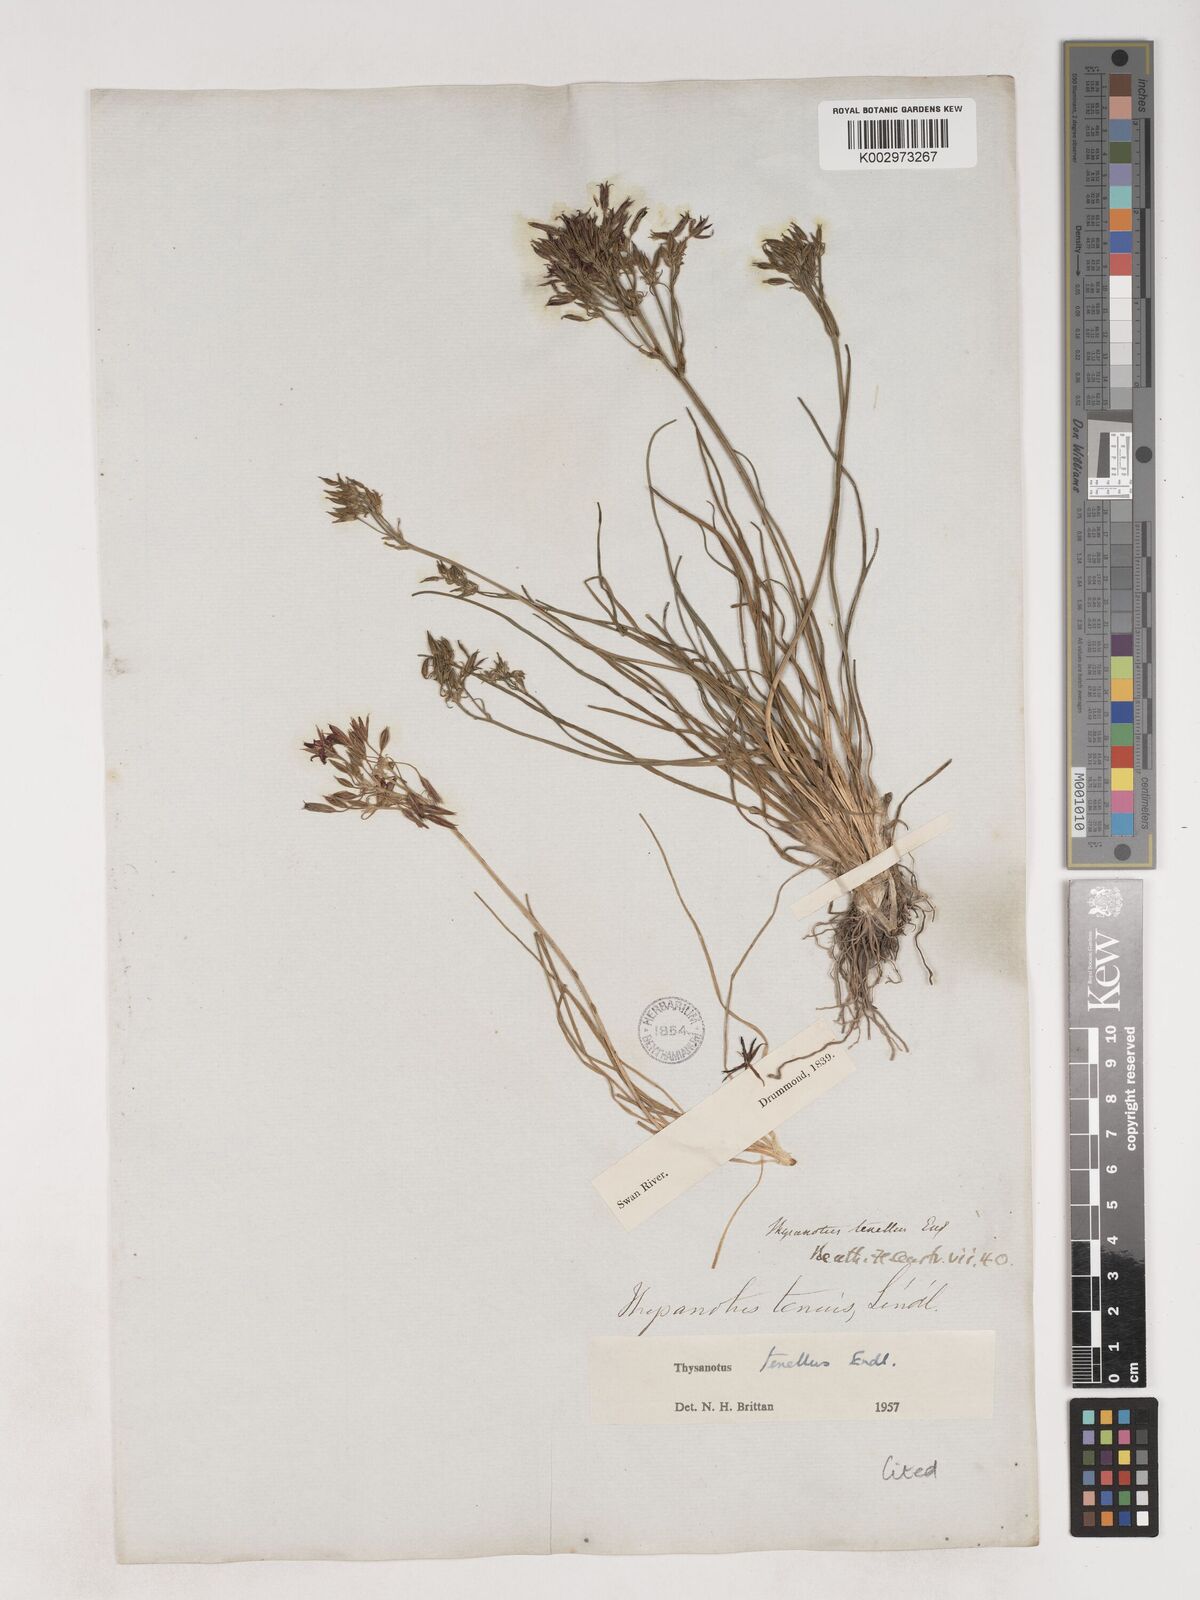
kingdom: Plantae
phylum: Tracheophyta
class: Liliopsida
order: Asparagales
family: Asparagaceae
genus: Thysanotus
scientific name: Thysanotus tenellus
